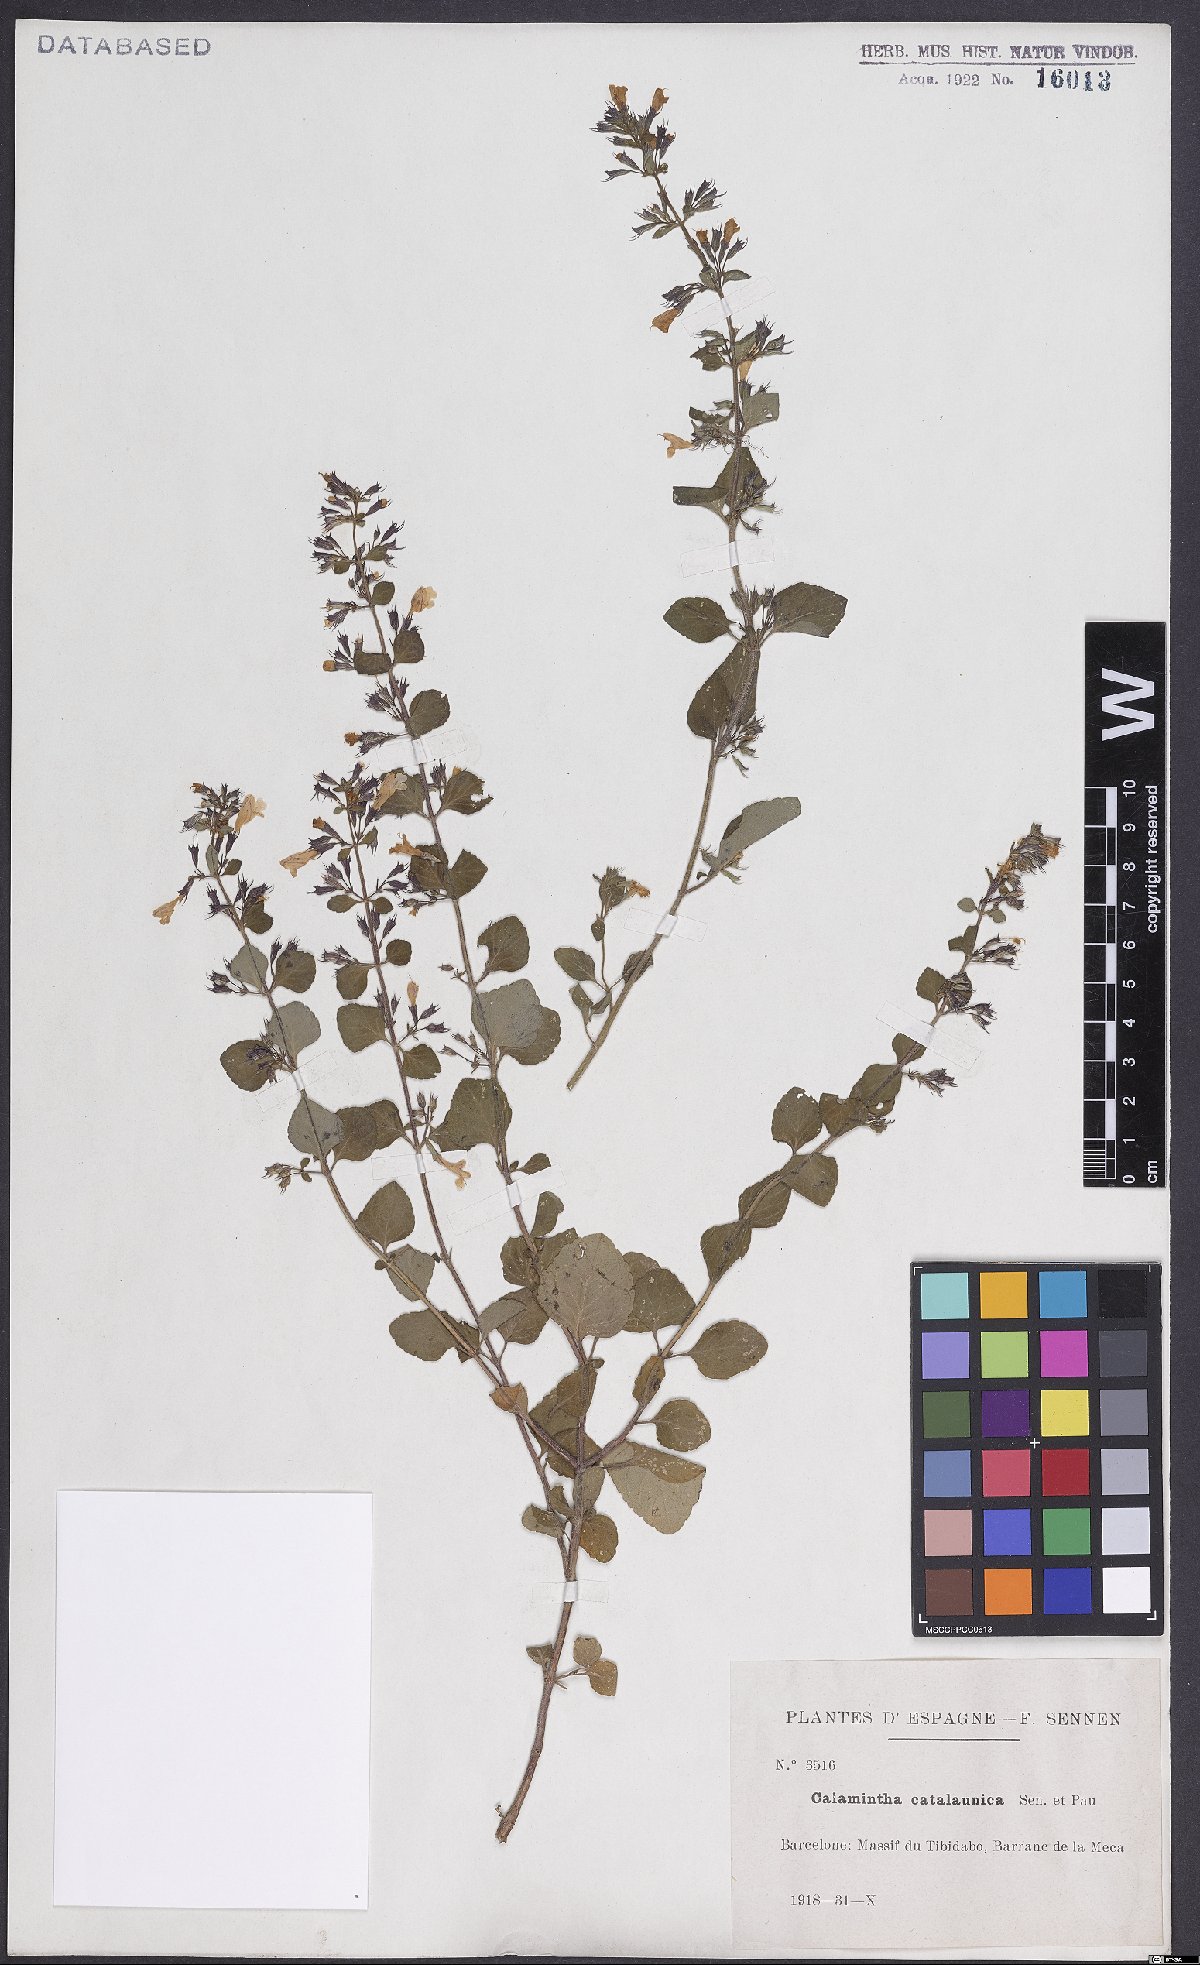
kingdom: Plantae
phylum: Tracheophyta
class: Magnoliopsida
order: Lamiales
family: Lamiaceae
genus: Clinopodium
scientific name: Clinopodium Calamintha catalaunica
